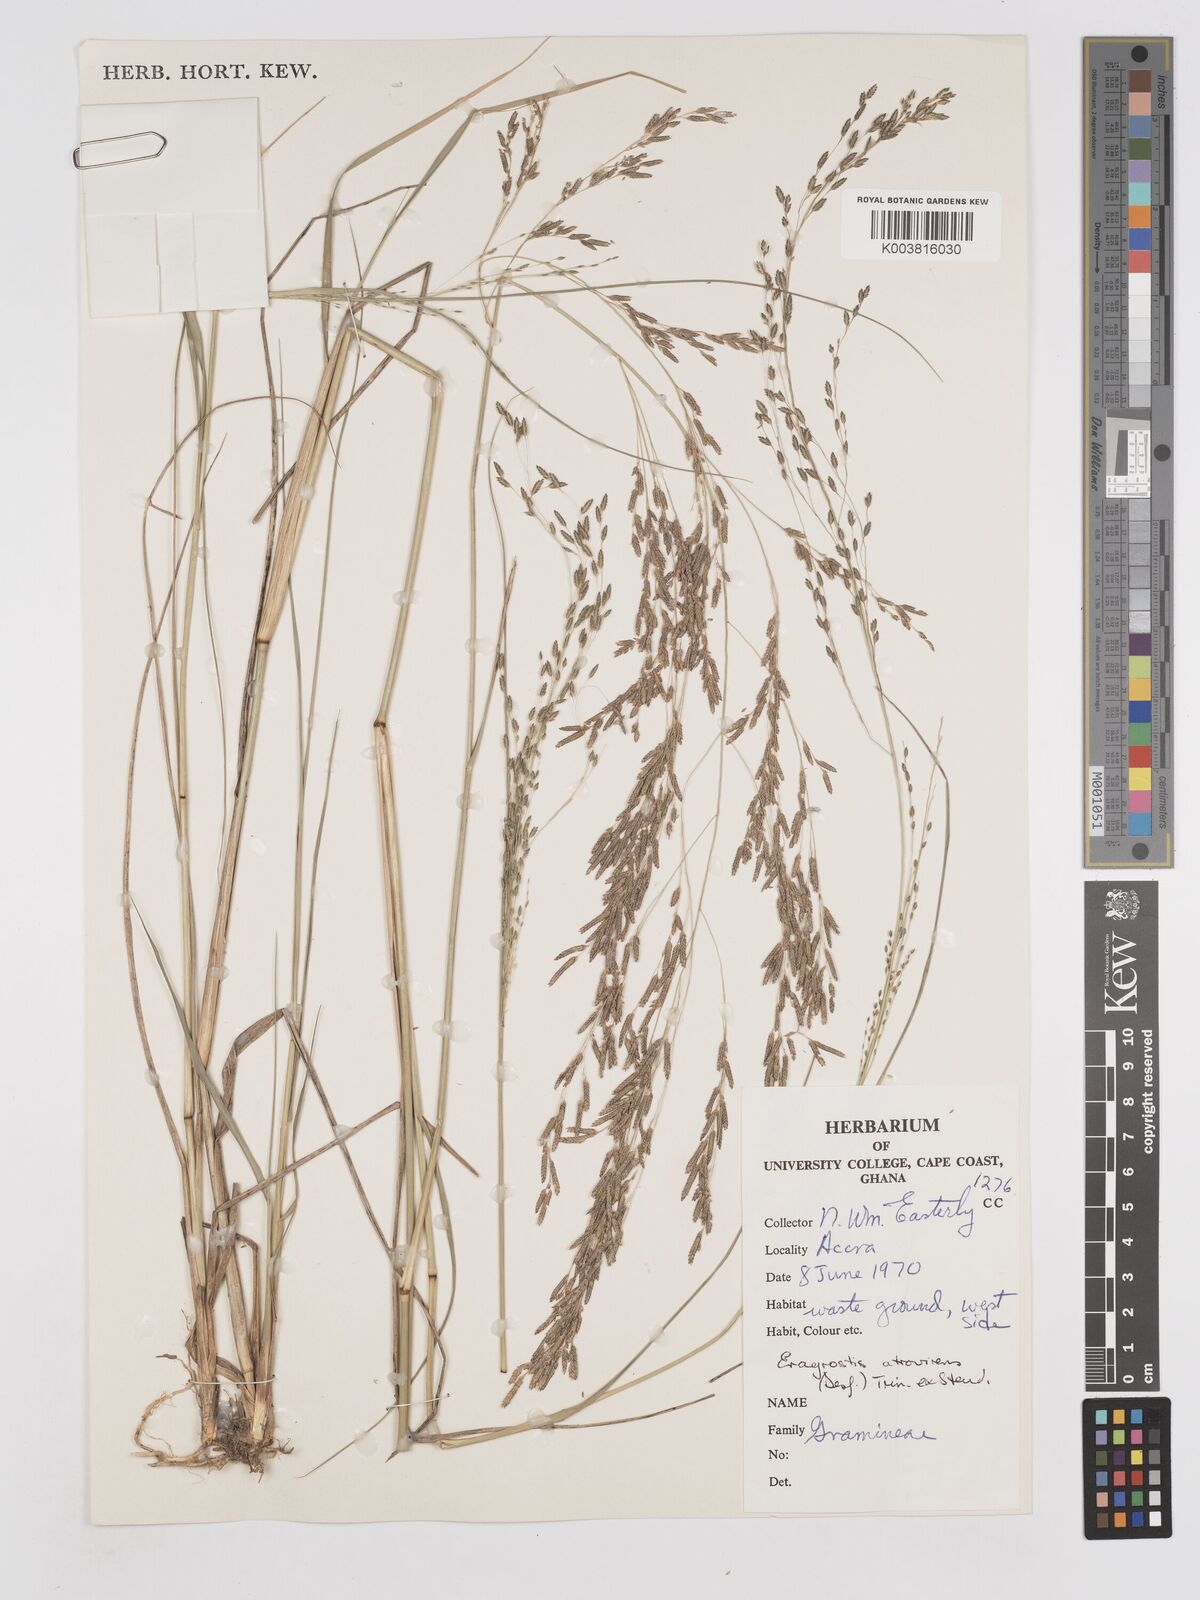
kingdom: Plantae
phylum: Tracheophyta
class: Liliopsida
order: Poales
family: Poaceae
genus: Eragrostis
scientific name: Eragrostis atrovirens
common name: Thalia lovegrass
